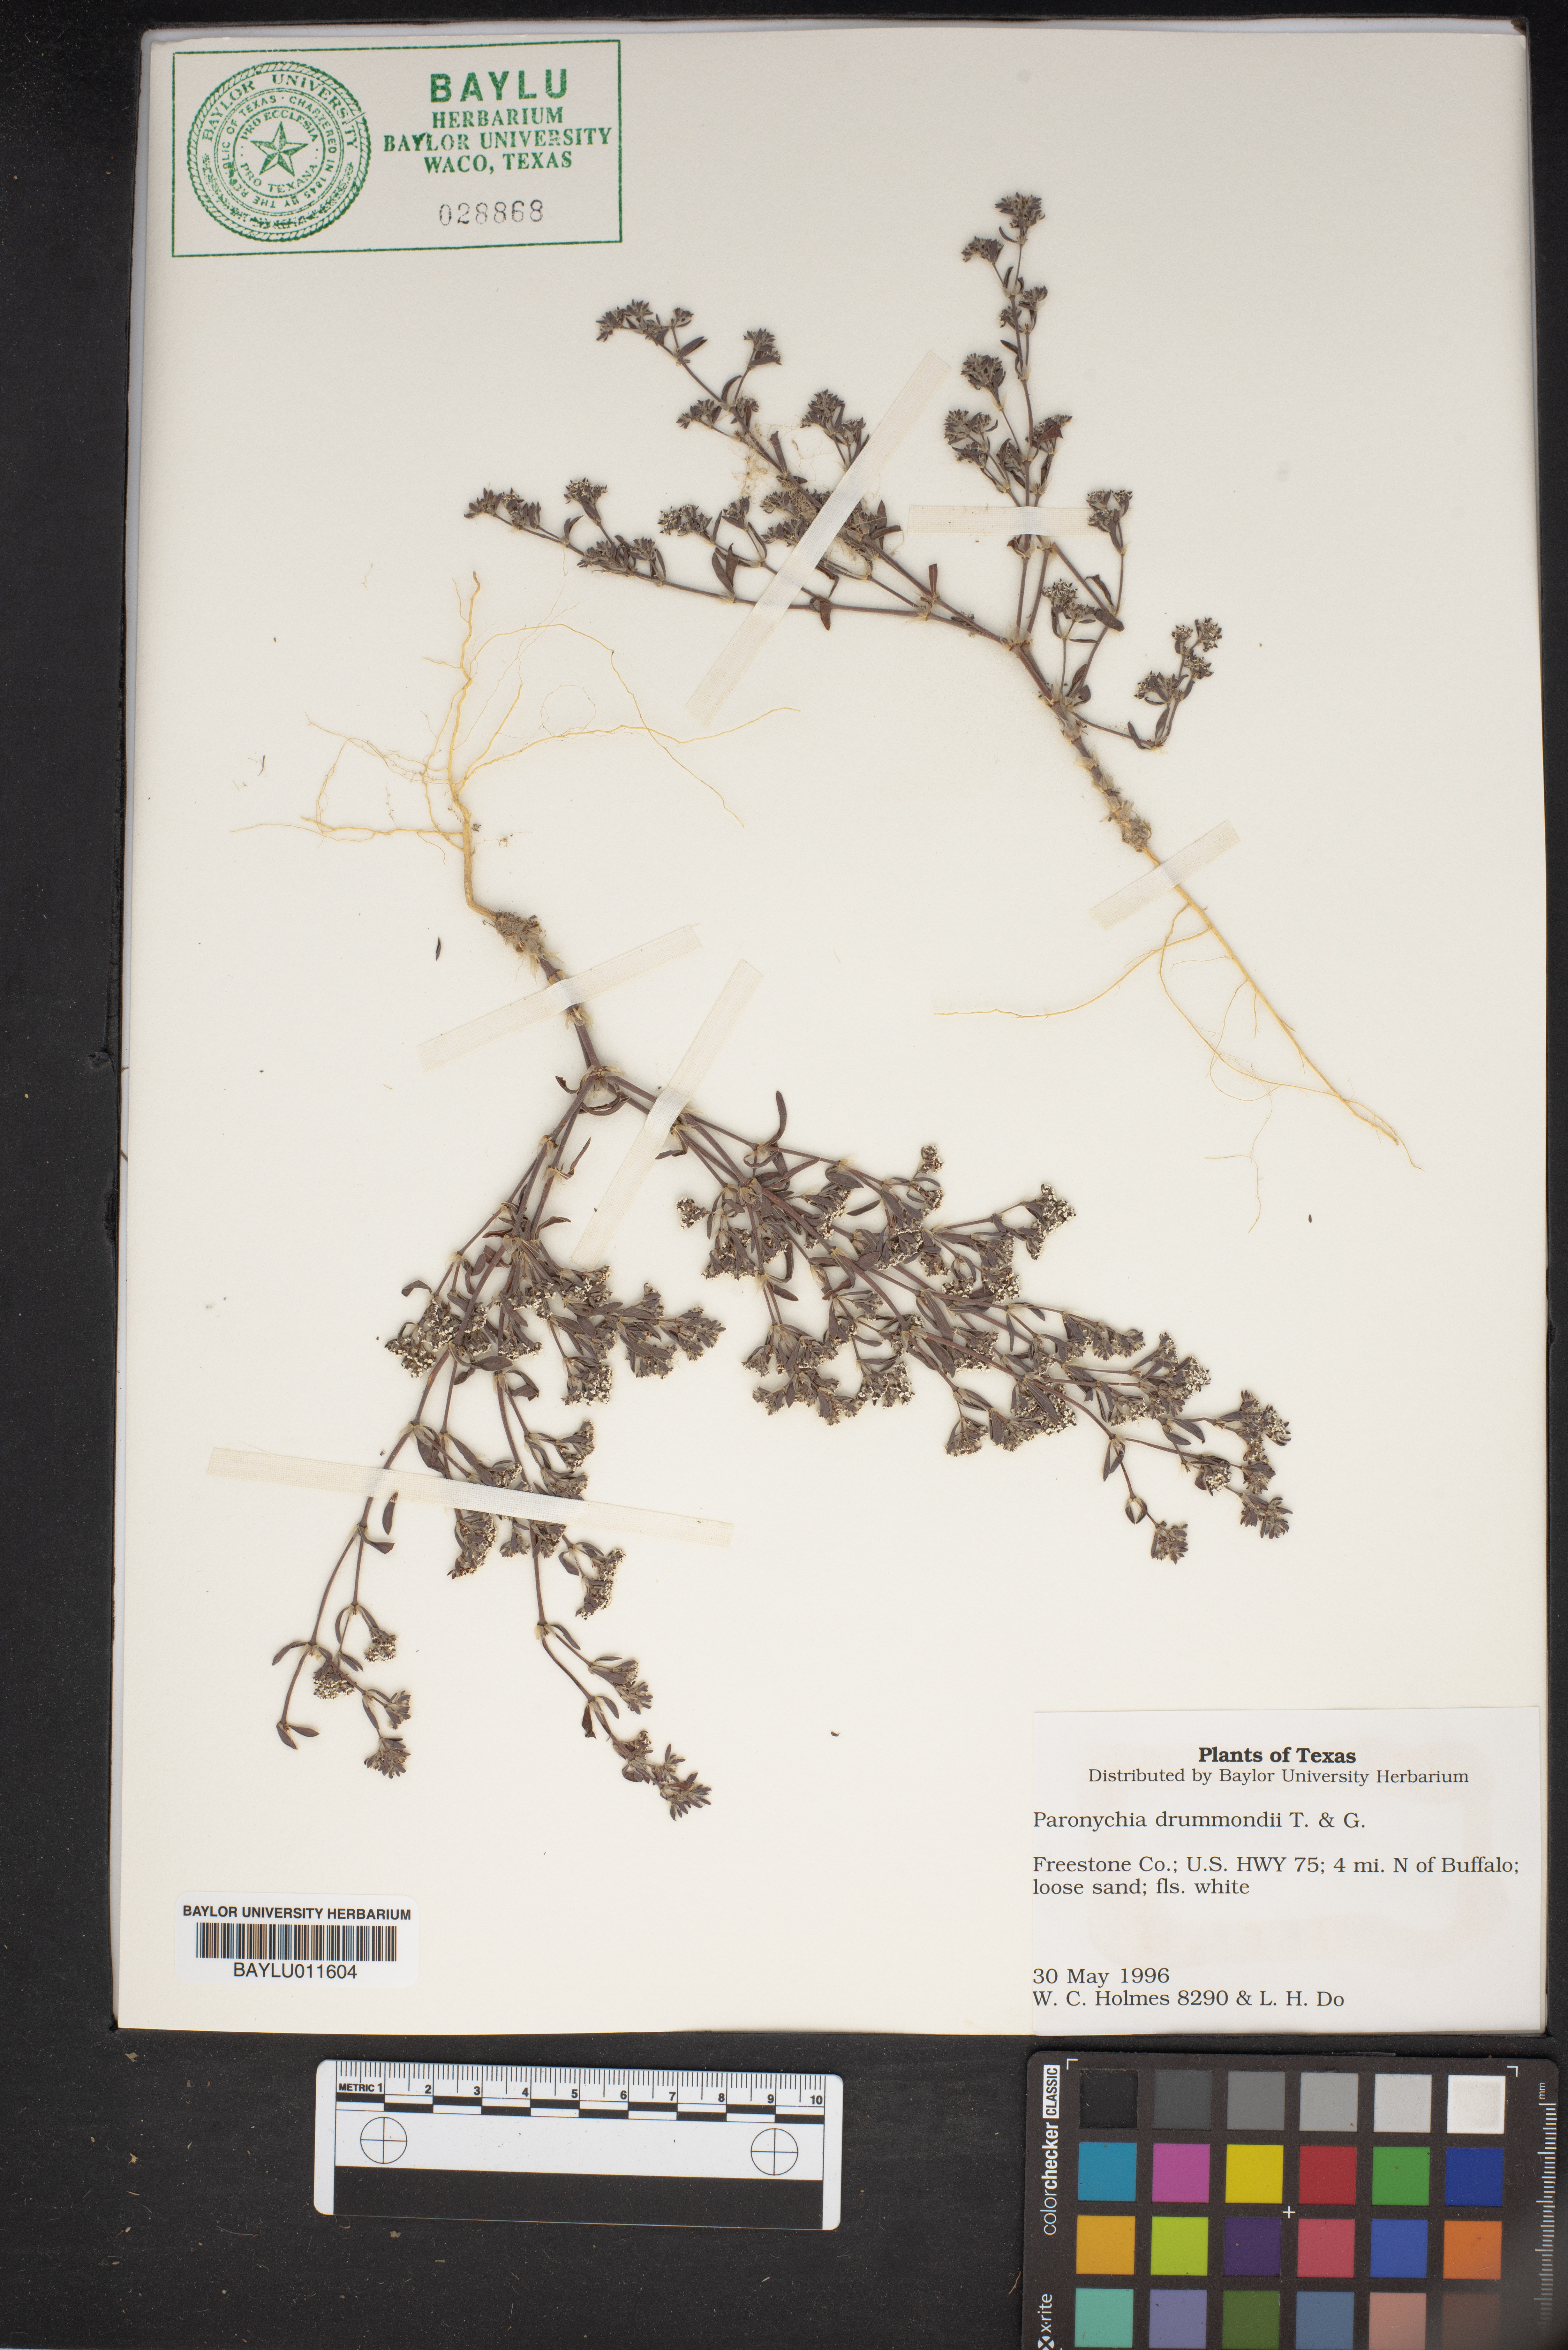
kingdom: Plantae
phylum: Tracheophyta
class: Magnoliopsida
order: Caryophyllales
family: Caryophyllaceae
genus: Paronychia
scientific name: Paronychia drummondii
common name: Drummond's nailwort
